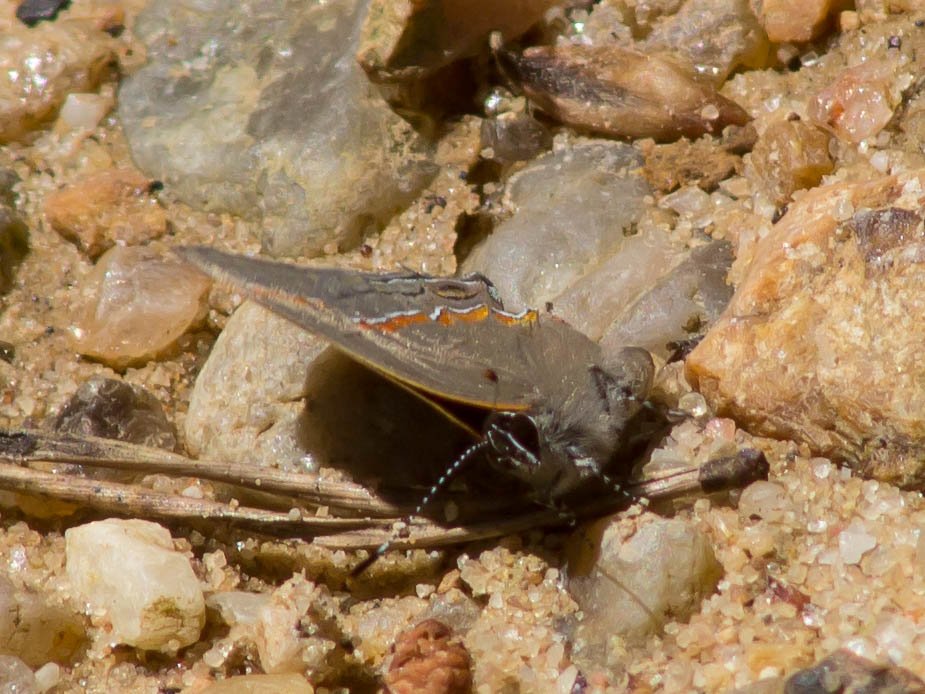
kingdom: Animalia
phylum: Arthropoda
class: Insecta
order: Lepidoptera
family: Lycaenidae
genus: Calycopis
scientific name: Calycopis cecrops
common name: Red-banded Hairstreak
